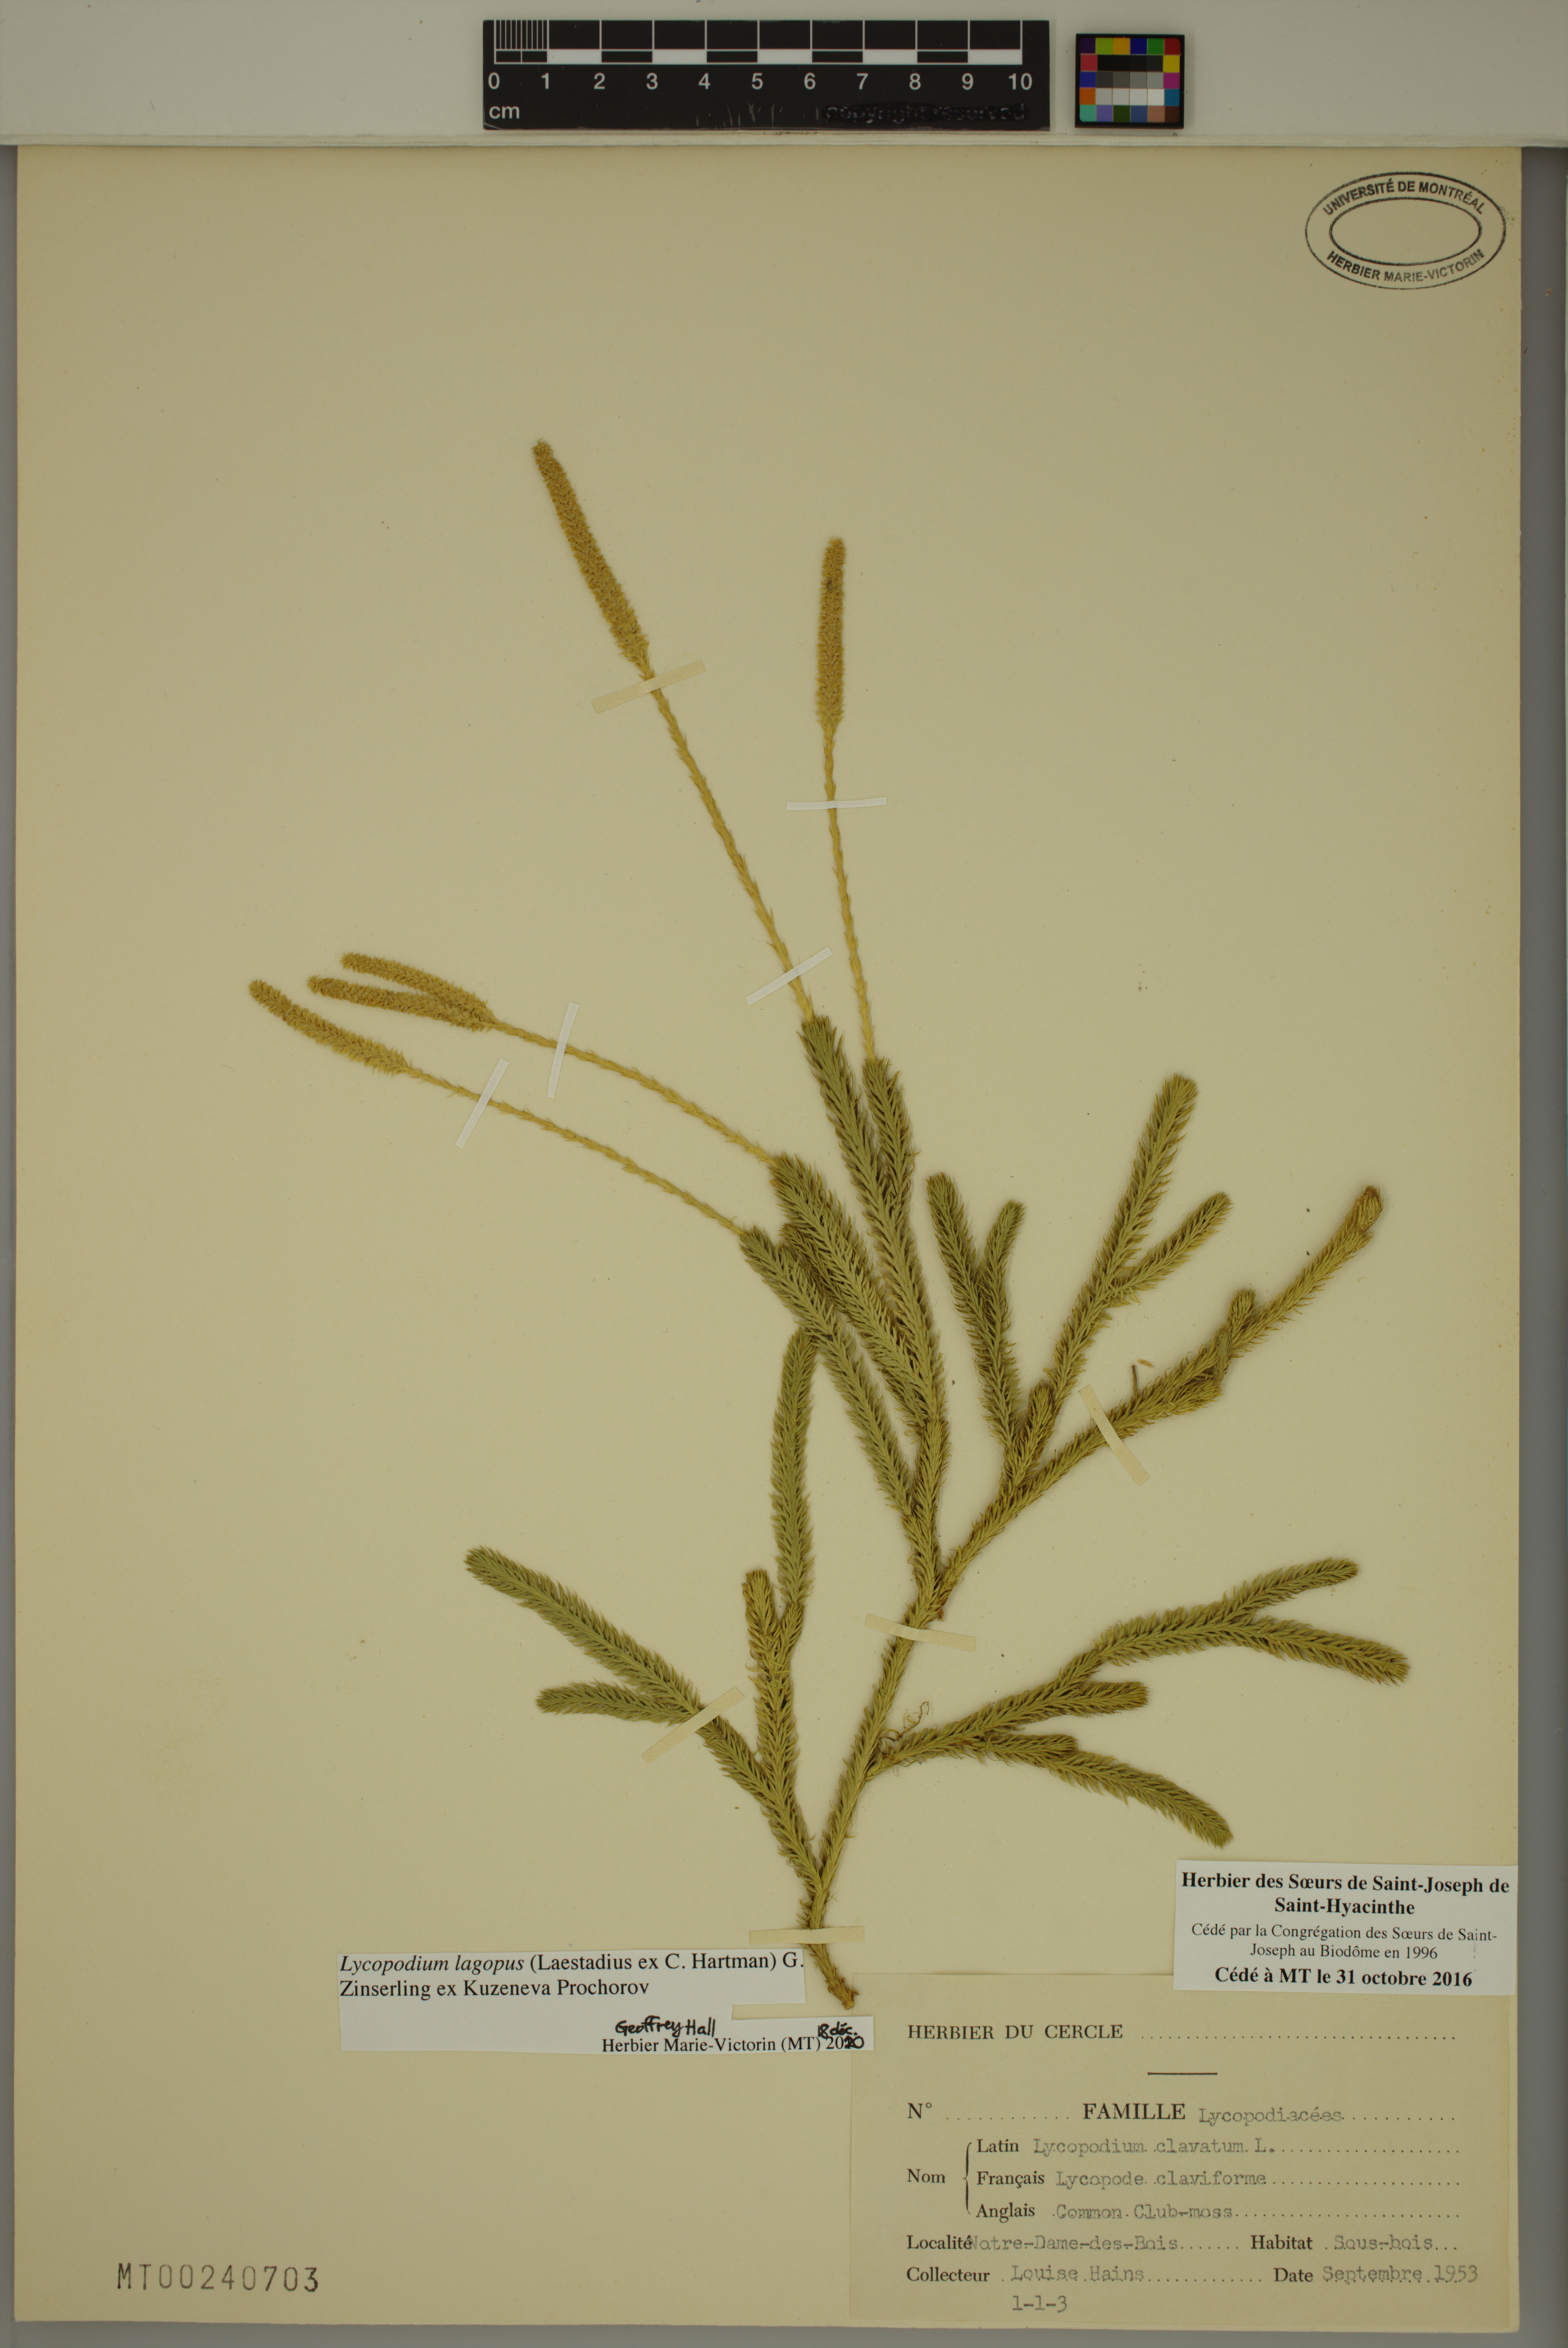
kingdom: Plantae
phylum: Tracheophyta
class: Lycopodiopsida
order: Lycopodiales
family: Lycopodiaceae
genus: Lycopodium
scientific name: Lycopodium lagopus
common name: One-cone clubmoss
